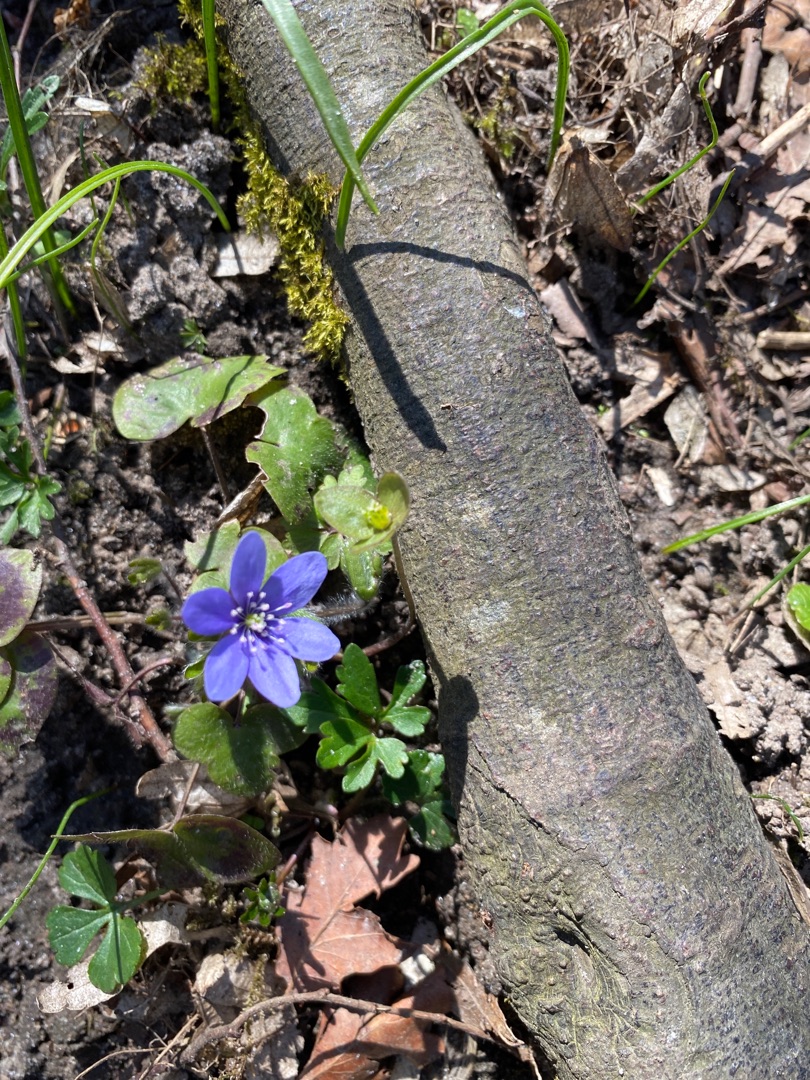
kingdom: Plantae
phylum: Tracheophyta
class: Magnoliopsida
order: Ranunculales
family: Ranunculaceae
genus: Hepatica
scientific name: Hepatica nobilis
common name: Blå anemone
